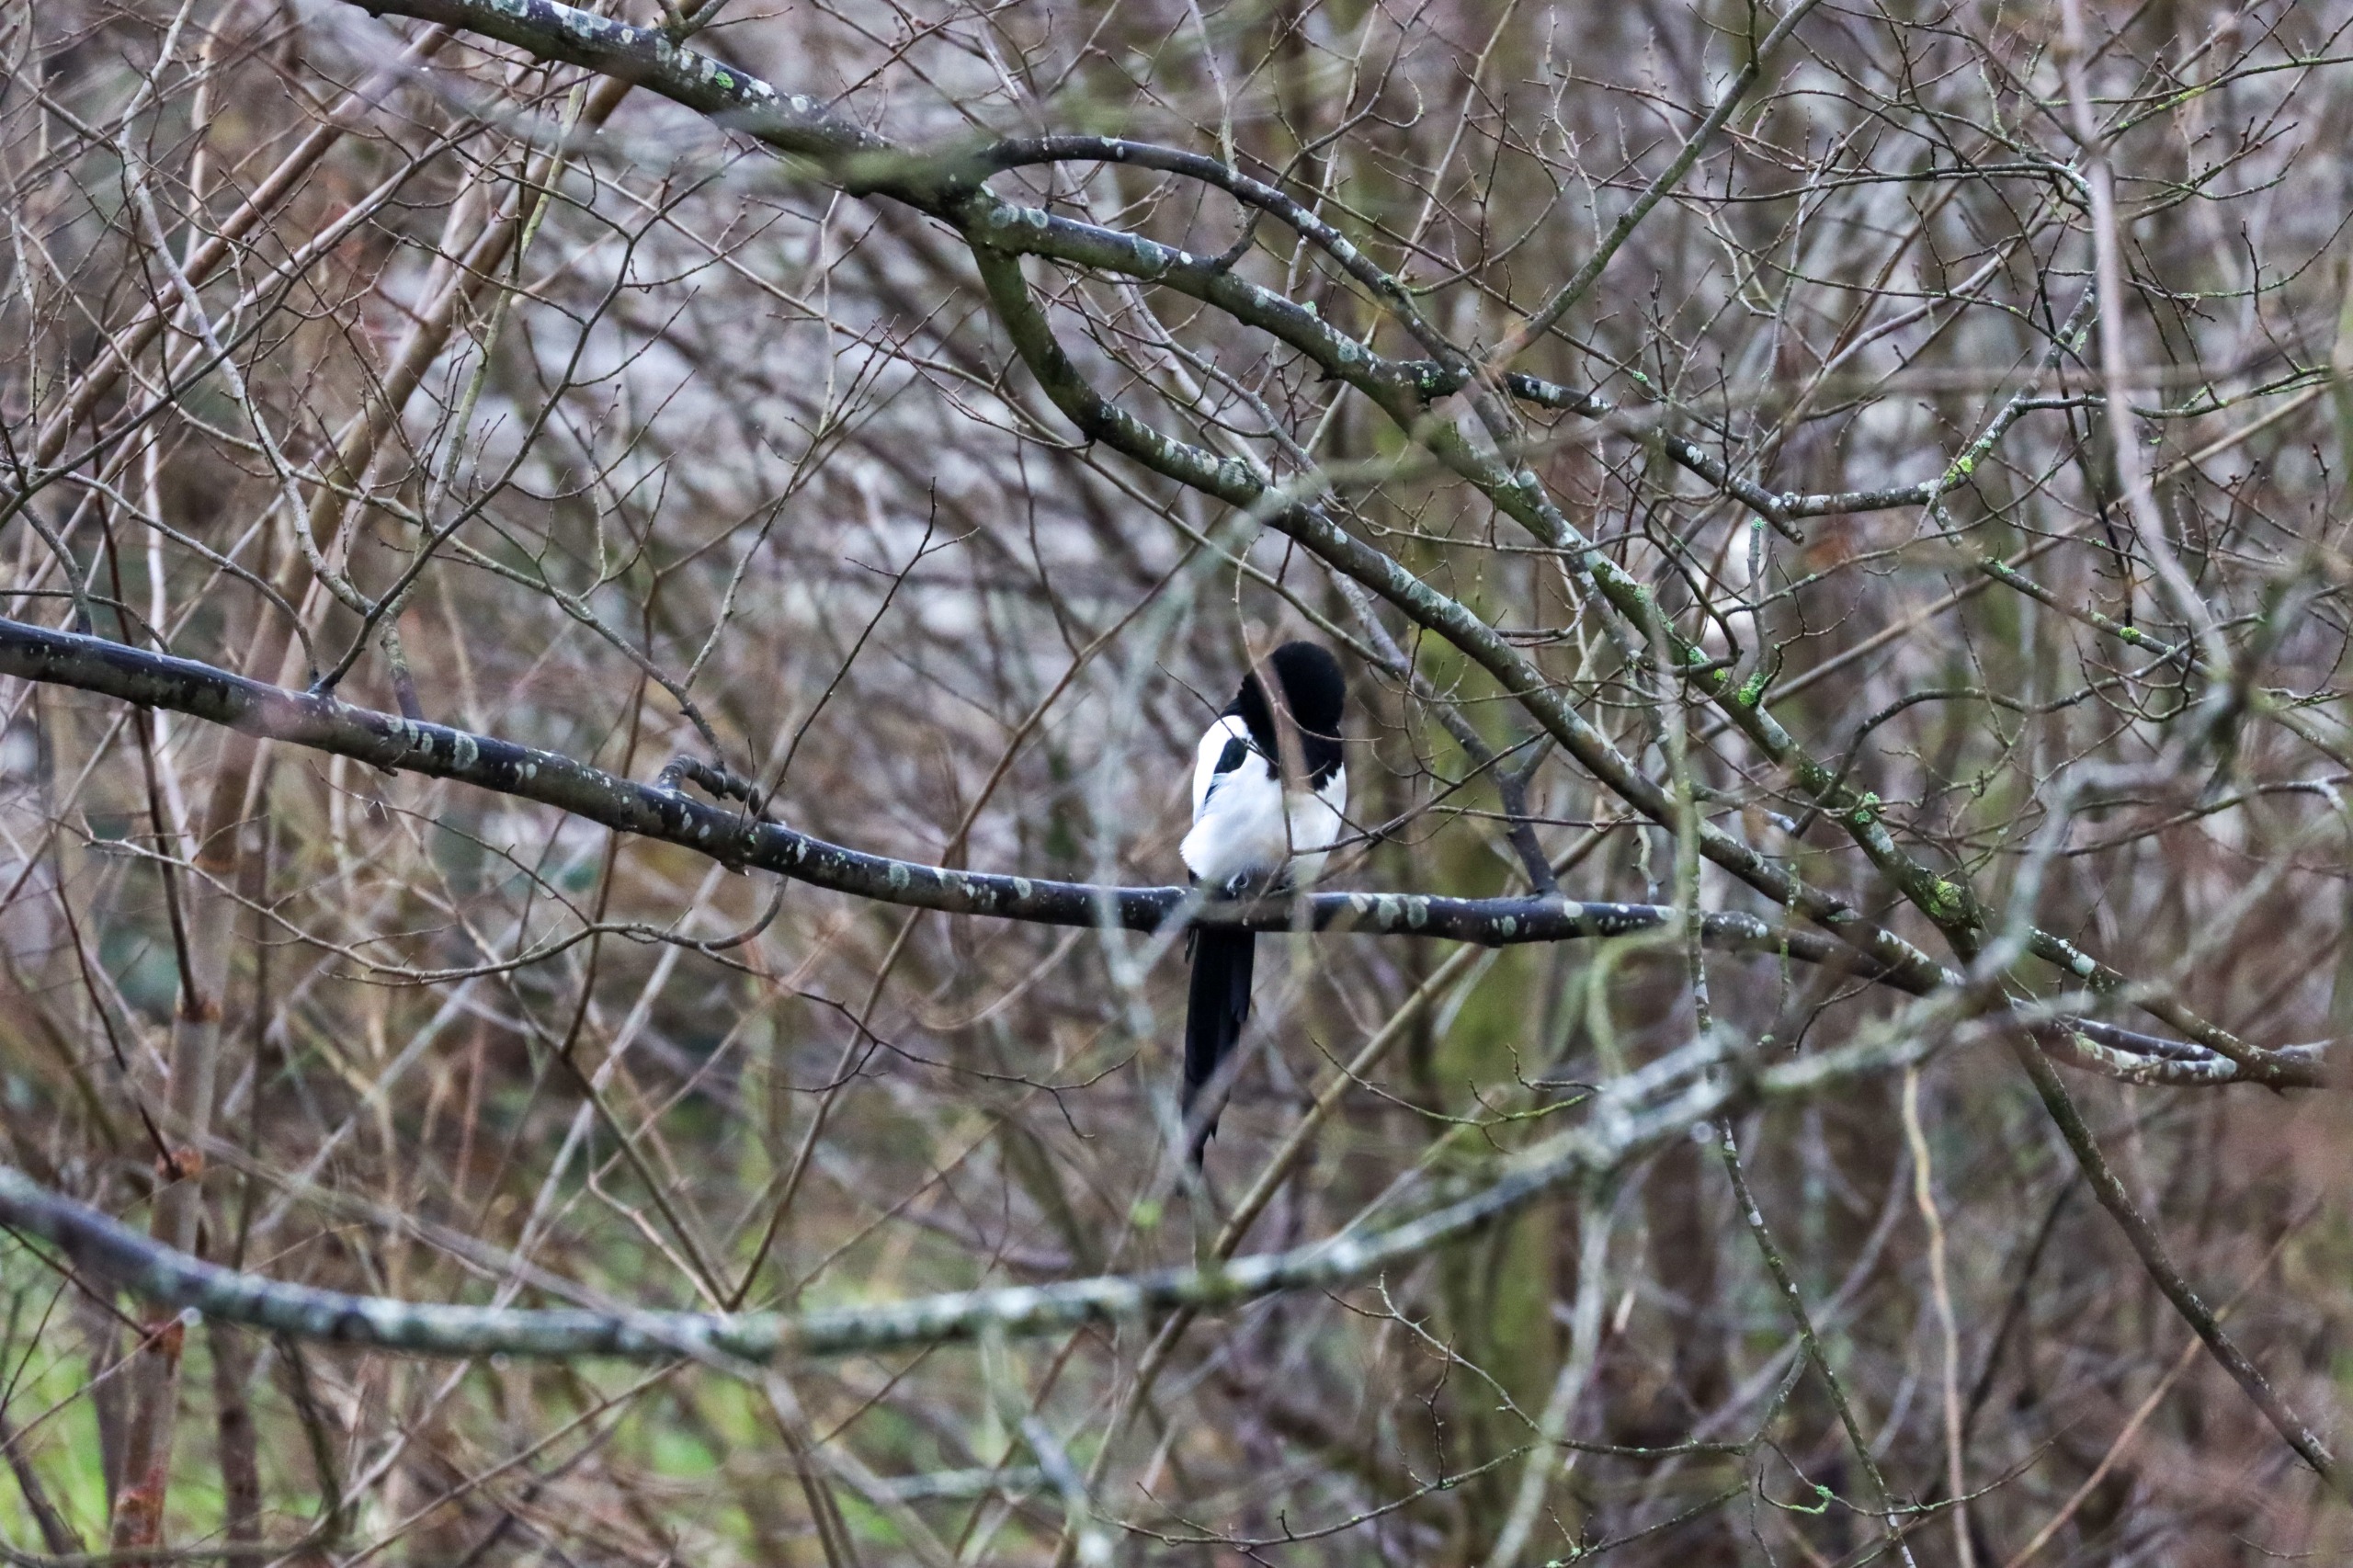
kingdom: Animalia
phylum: Chordata
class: Aves
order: Passeriformes
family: Corvidae
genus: Pica
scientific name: Pica pica
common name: Husskade
